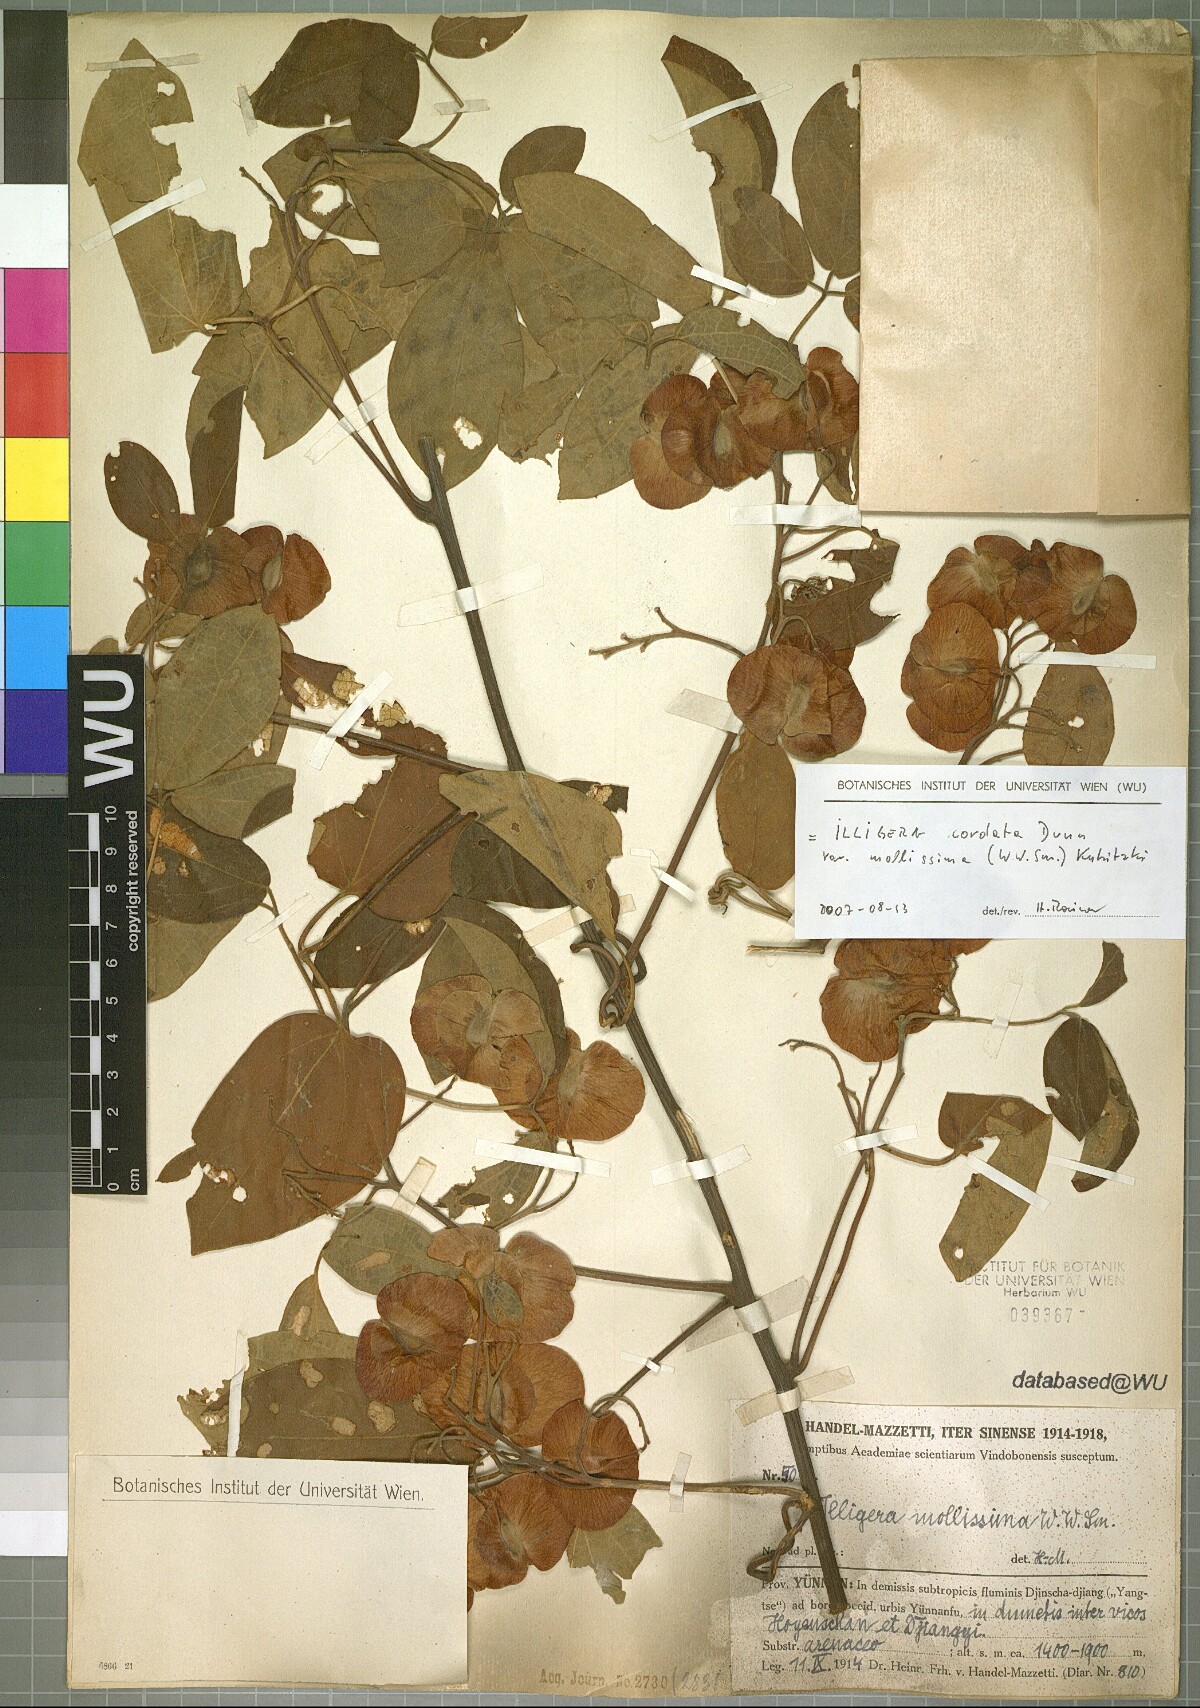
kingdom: Plantae
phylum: Tracheophyta
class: Magnoliopsida
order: Laurales
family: Hernandiaceae
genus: Illigera
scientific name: Illigera cordata
